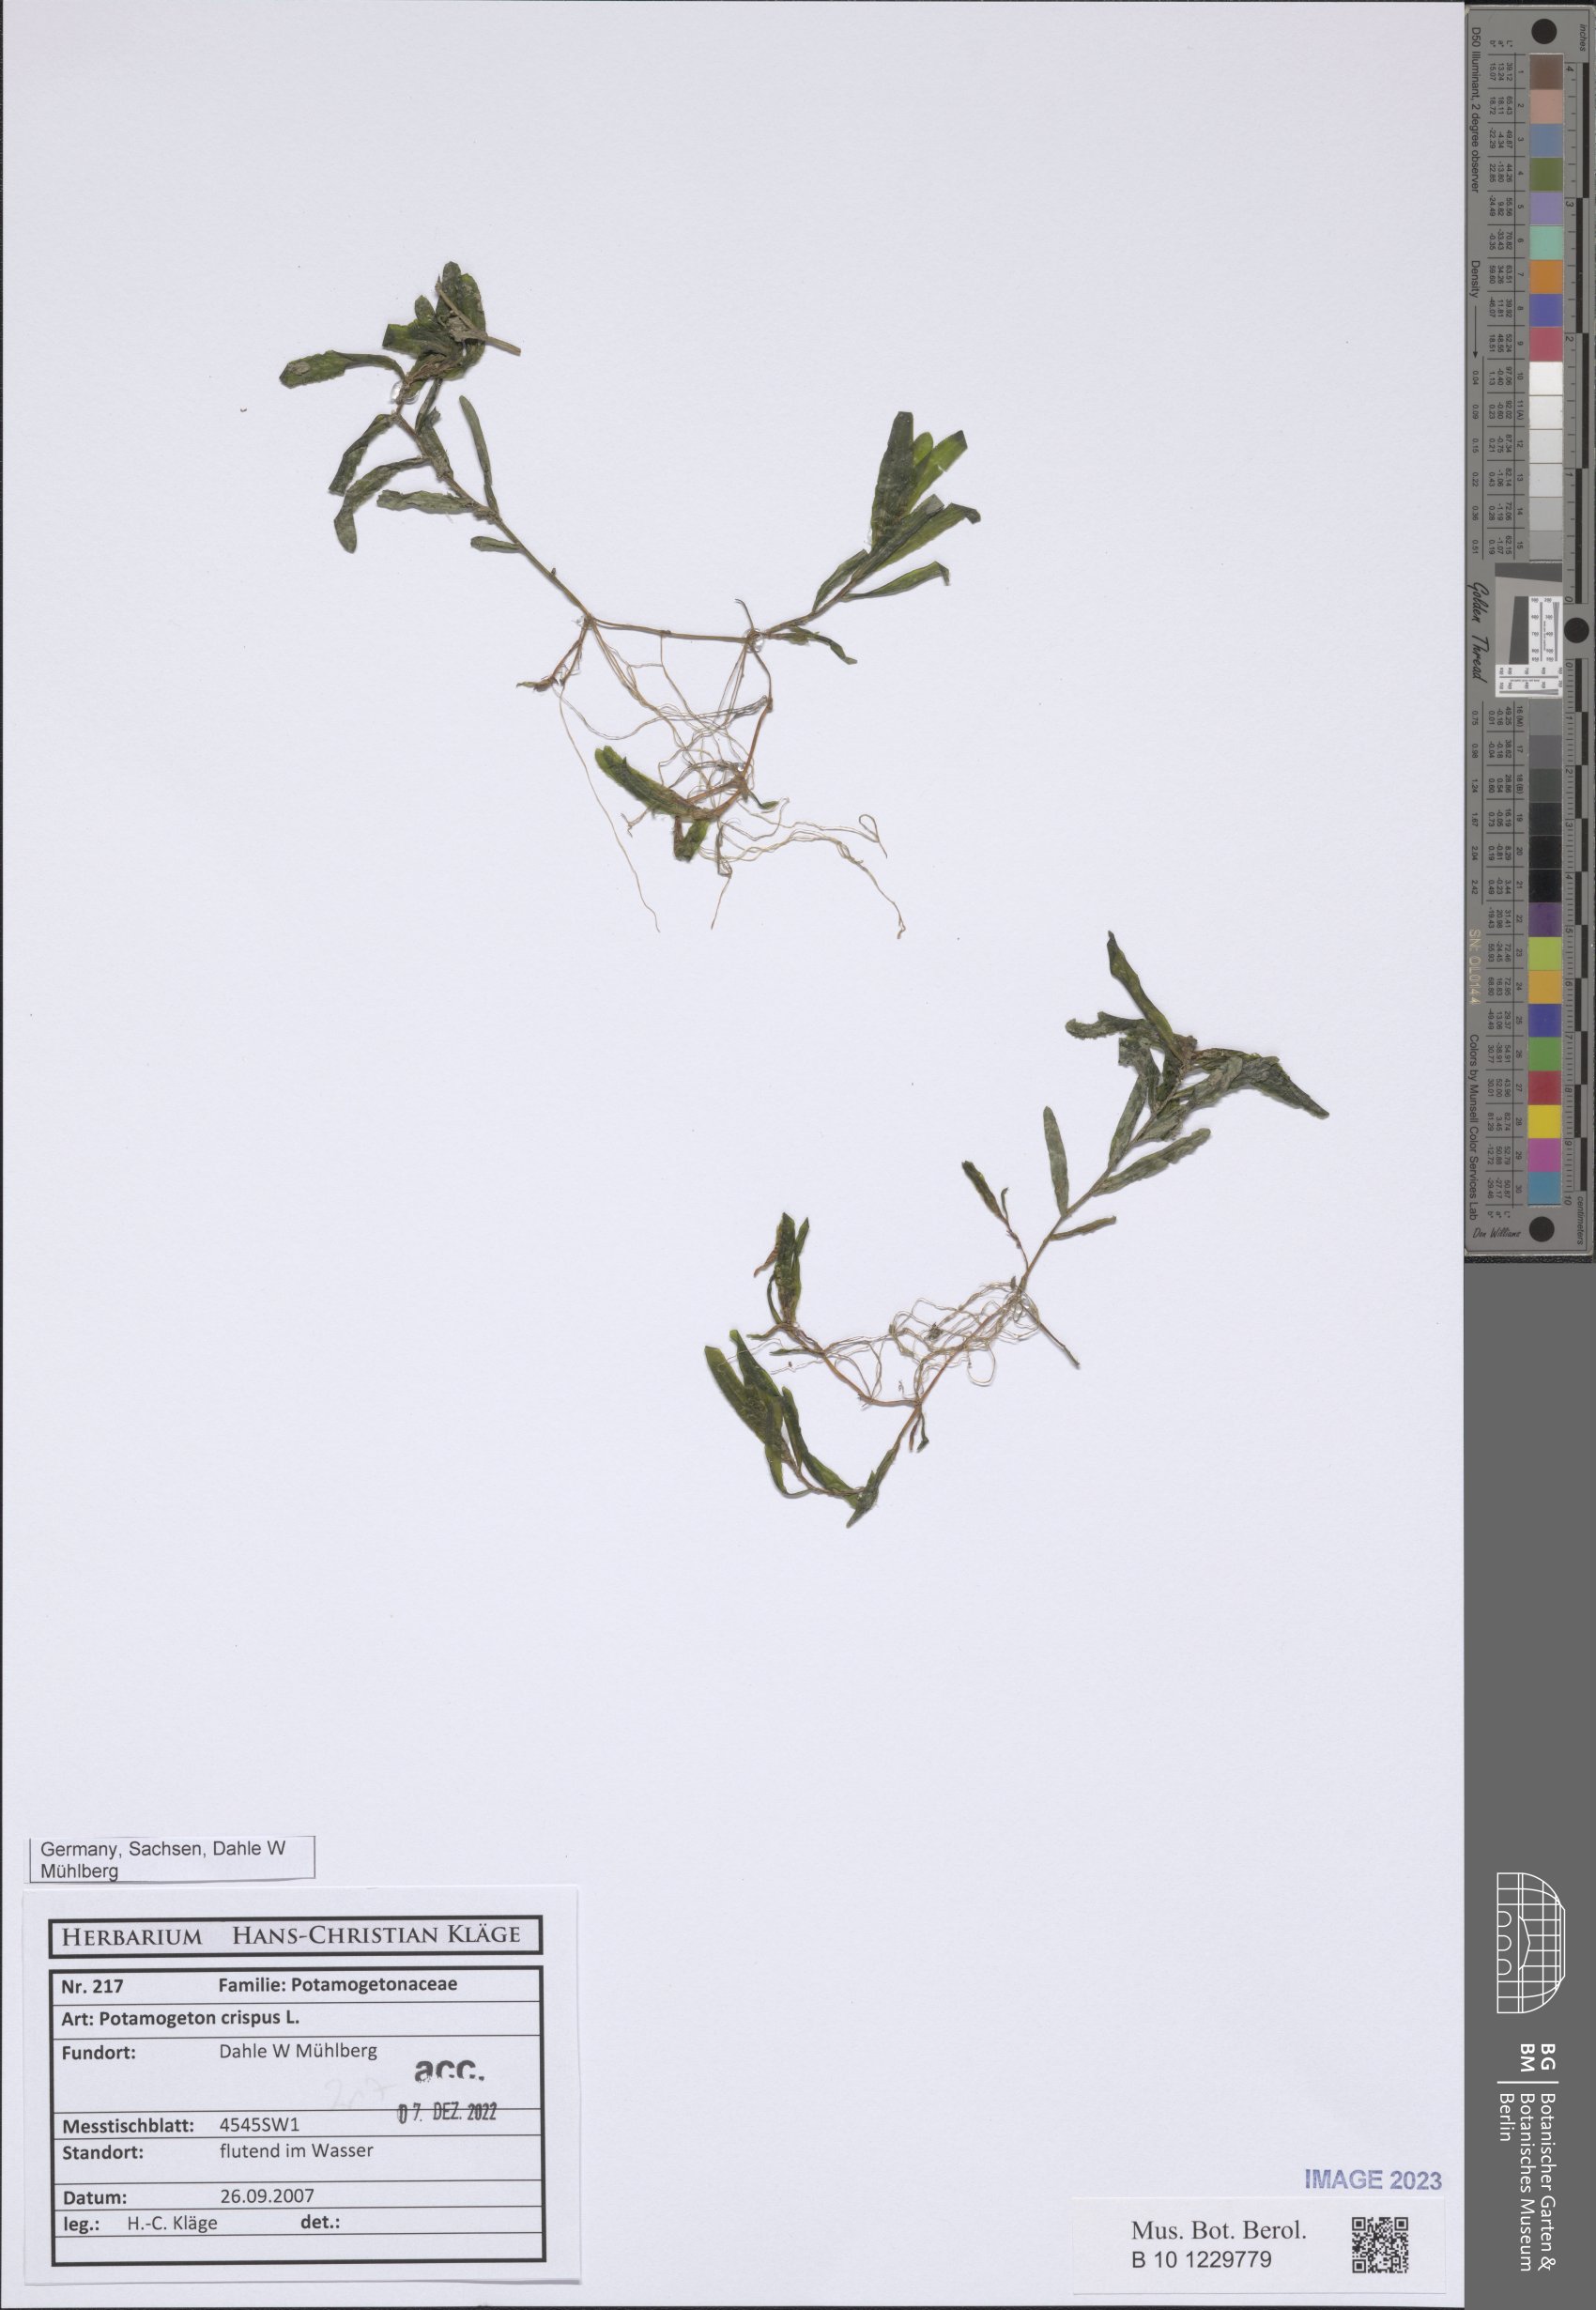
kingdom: Plantae
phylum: Tracheophyta
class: Liliopsida
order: Alismatales
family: Potamogetonaceae
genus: Potamogeton
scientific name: Potamogeton crispus
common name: Curled pondweed
